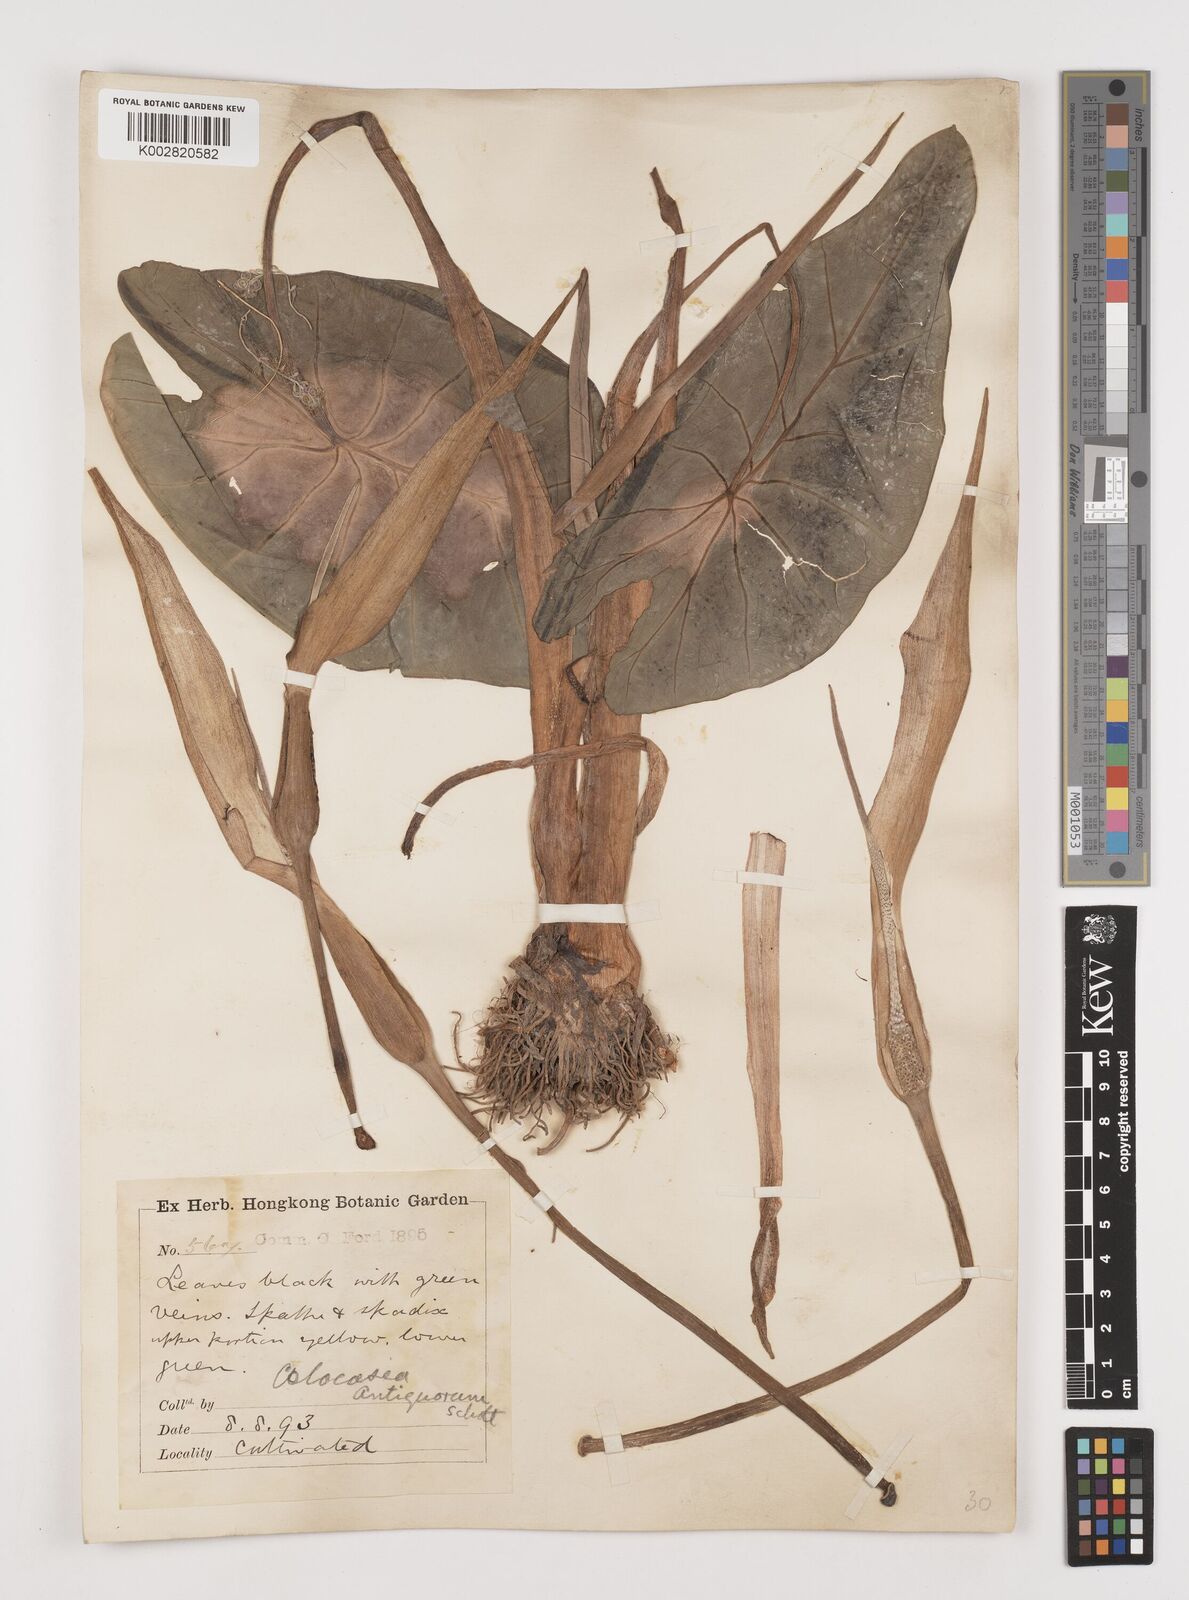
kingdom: Plantae
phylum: Tracheophyta
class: Liliopsida
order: Alismatales
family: Araceae
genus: Colocasia
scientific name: Colocasia esculenta
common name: Taro
